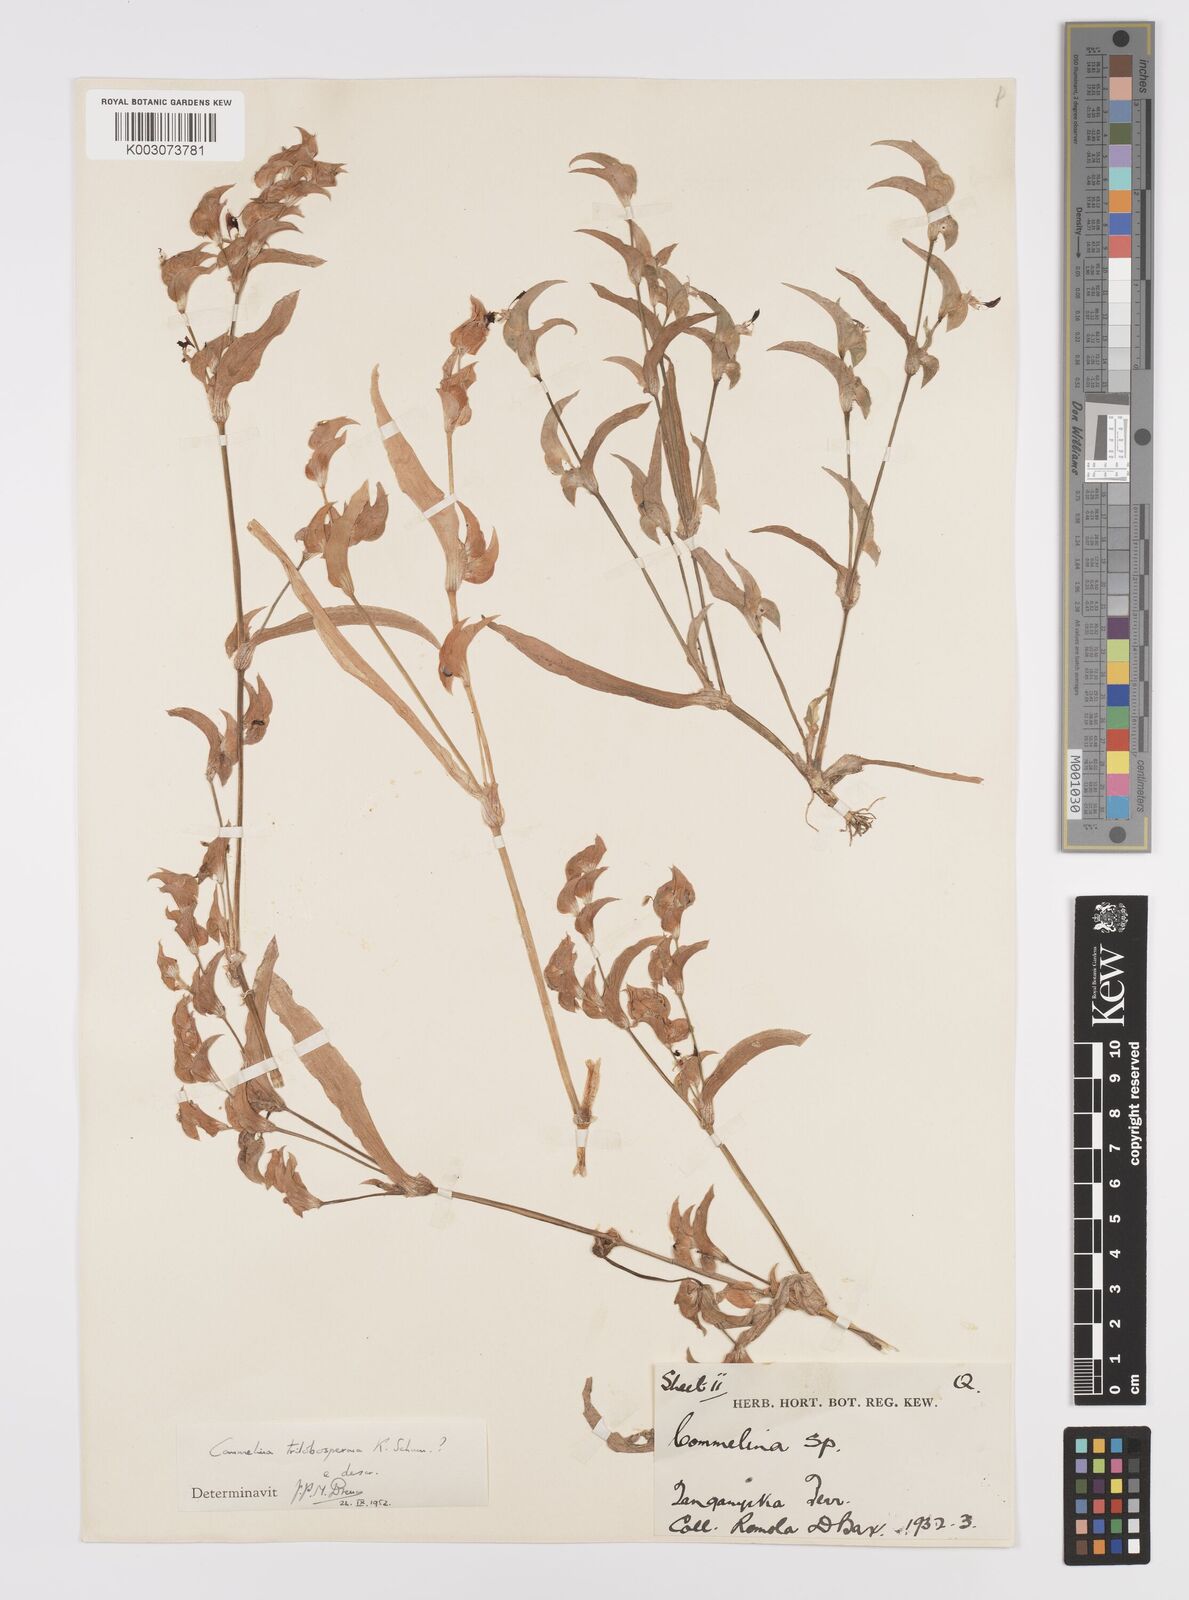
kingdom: Plantae
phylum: Tracheophyta
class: Liliopsida
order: Commelinales
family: Commelinaceae
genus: Commelina
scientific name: Commelina trilobosperma
